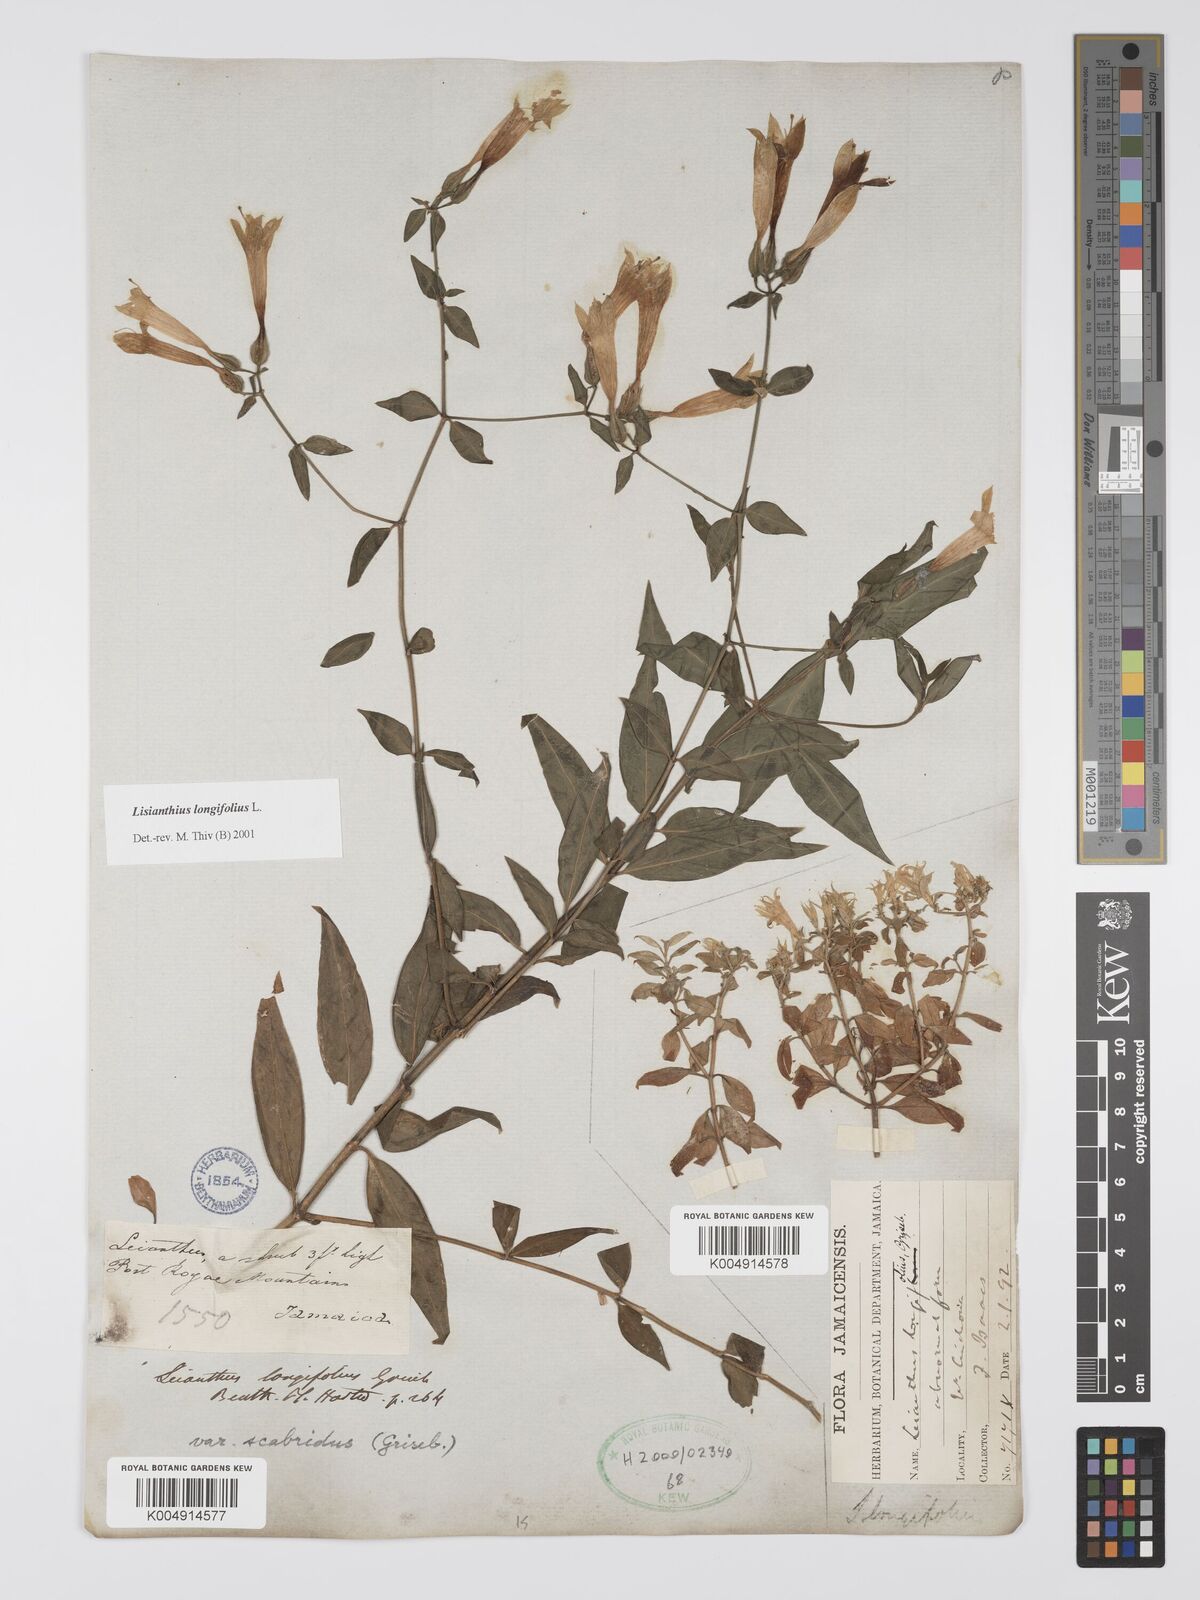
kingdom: Plantae
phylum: Tracheophyta
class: Magnoliopsida
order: Gentianales
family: Gentianaceae
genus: Lisianthus
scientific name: Lisianthus longifolius
